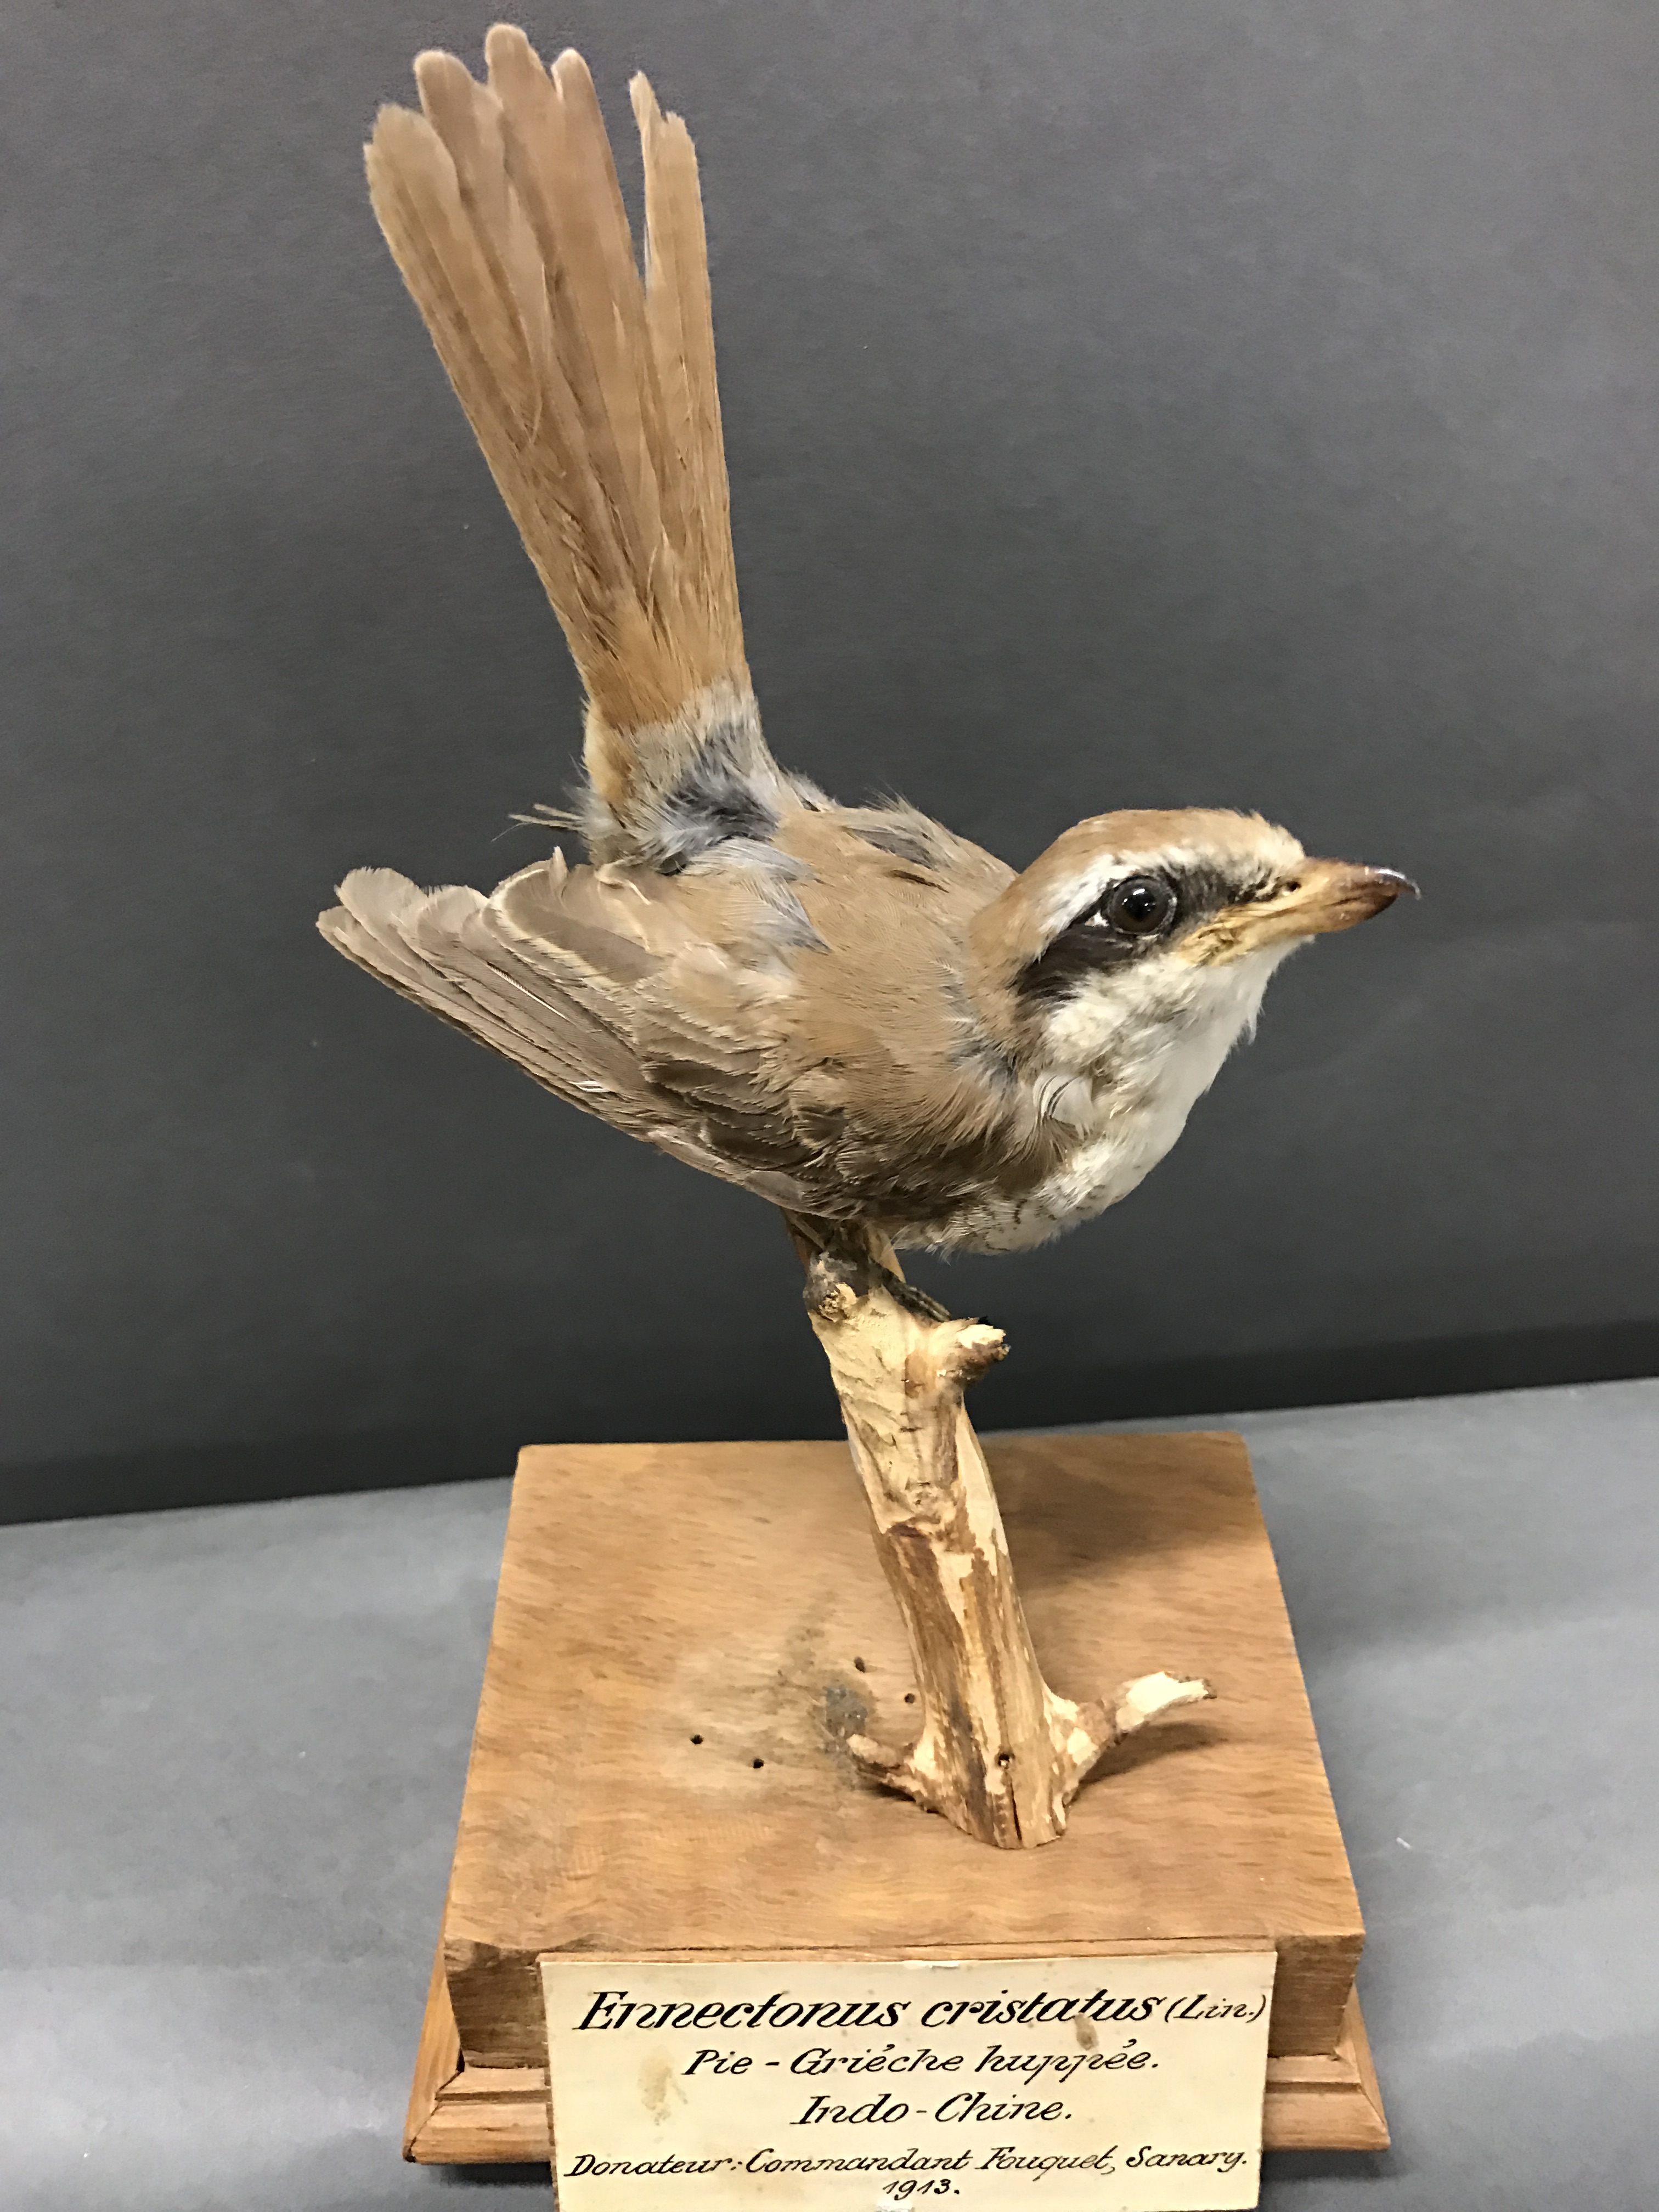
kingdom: Animalia
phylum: Chordata
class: Aves
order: Passeriformes
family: Laniidae
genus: Lanius
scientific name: Lanius cristatus
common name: Brown shrike
